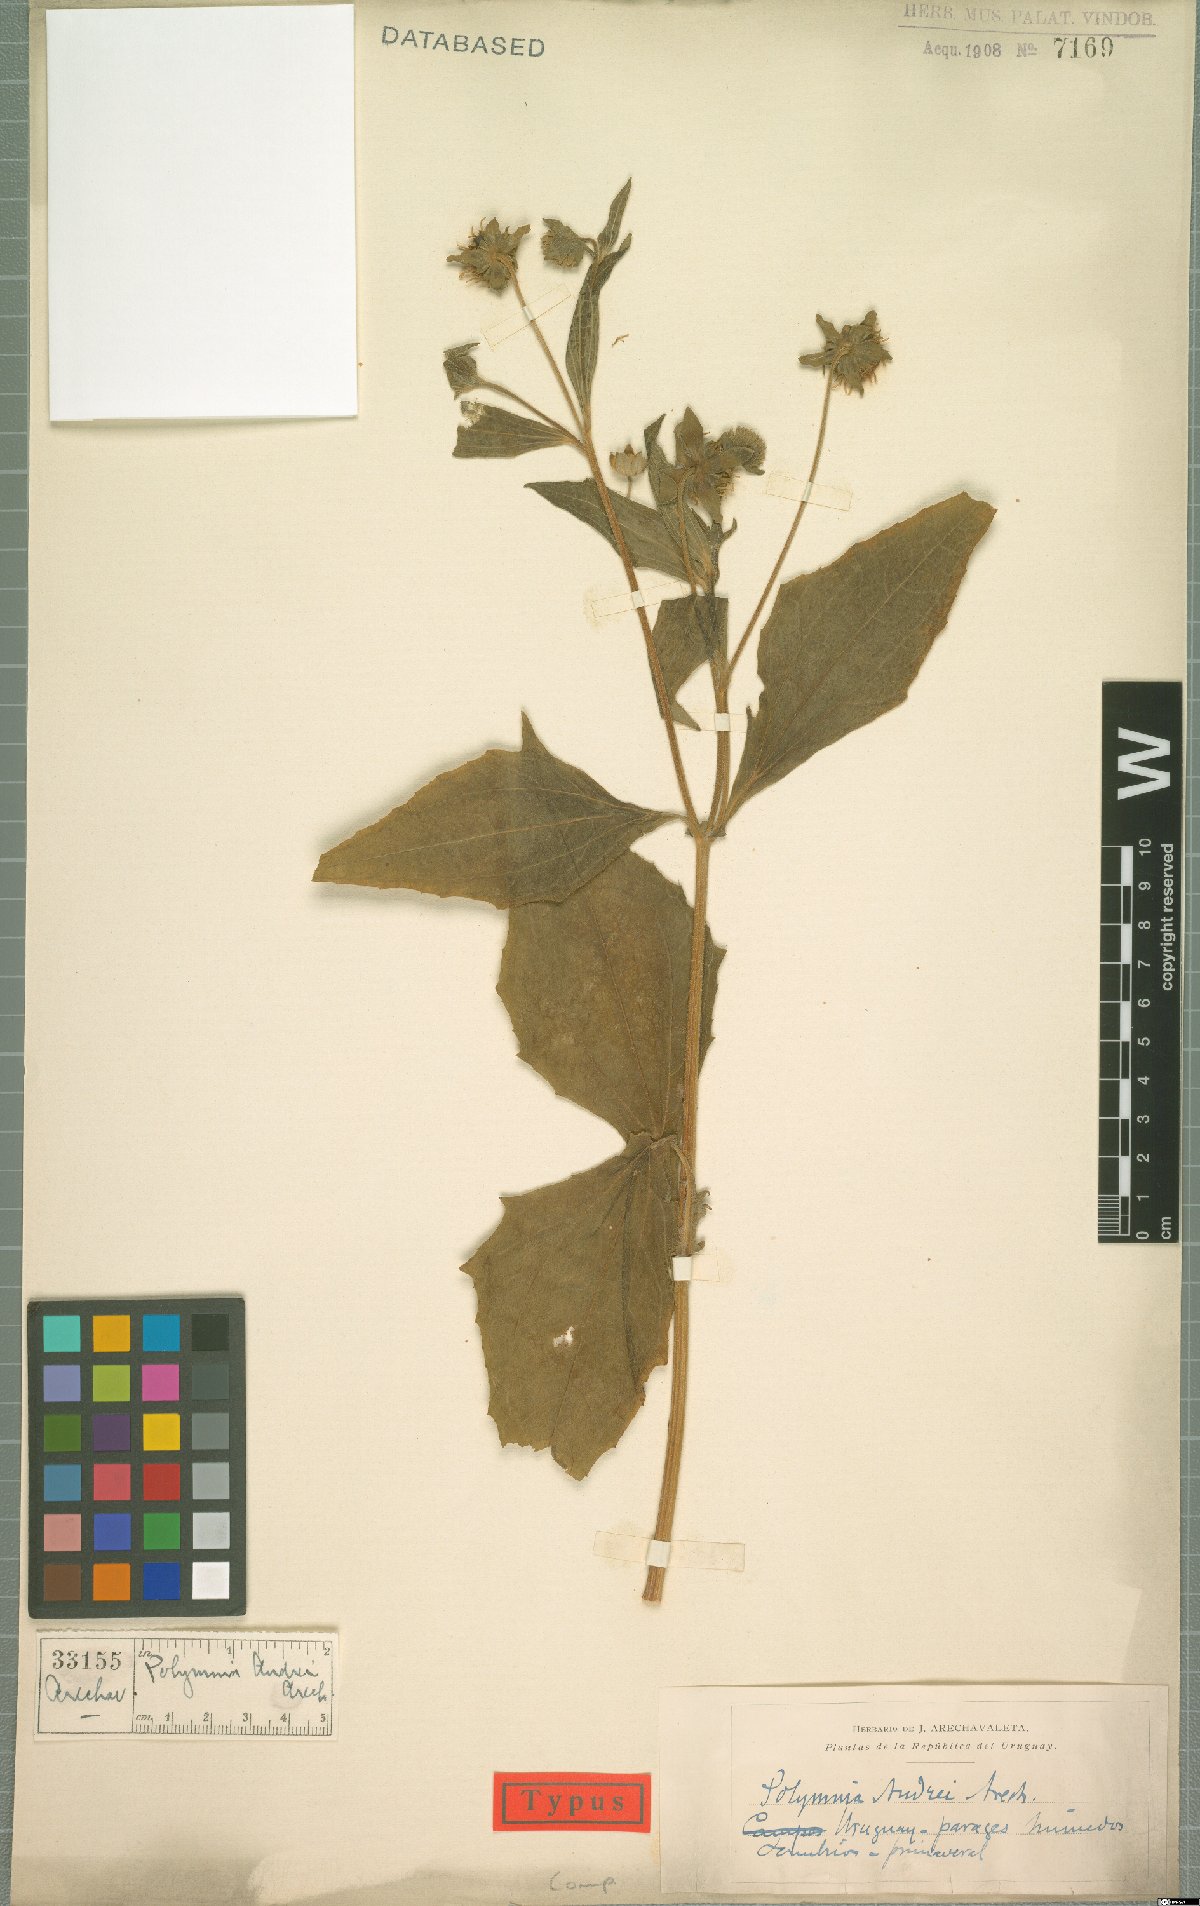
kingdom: Plantae
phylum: Tracheophyta
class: Magnoliopsida
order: Asterales
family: Asteraceae
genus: Smallanthus
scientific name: Smallanthus connatus
